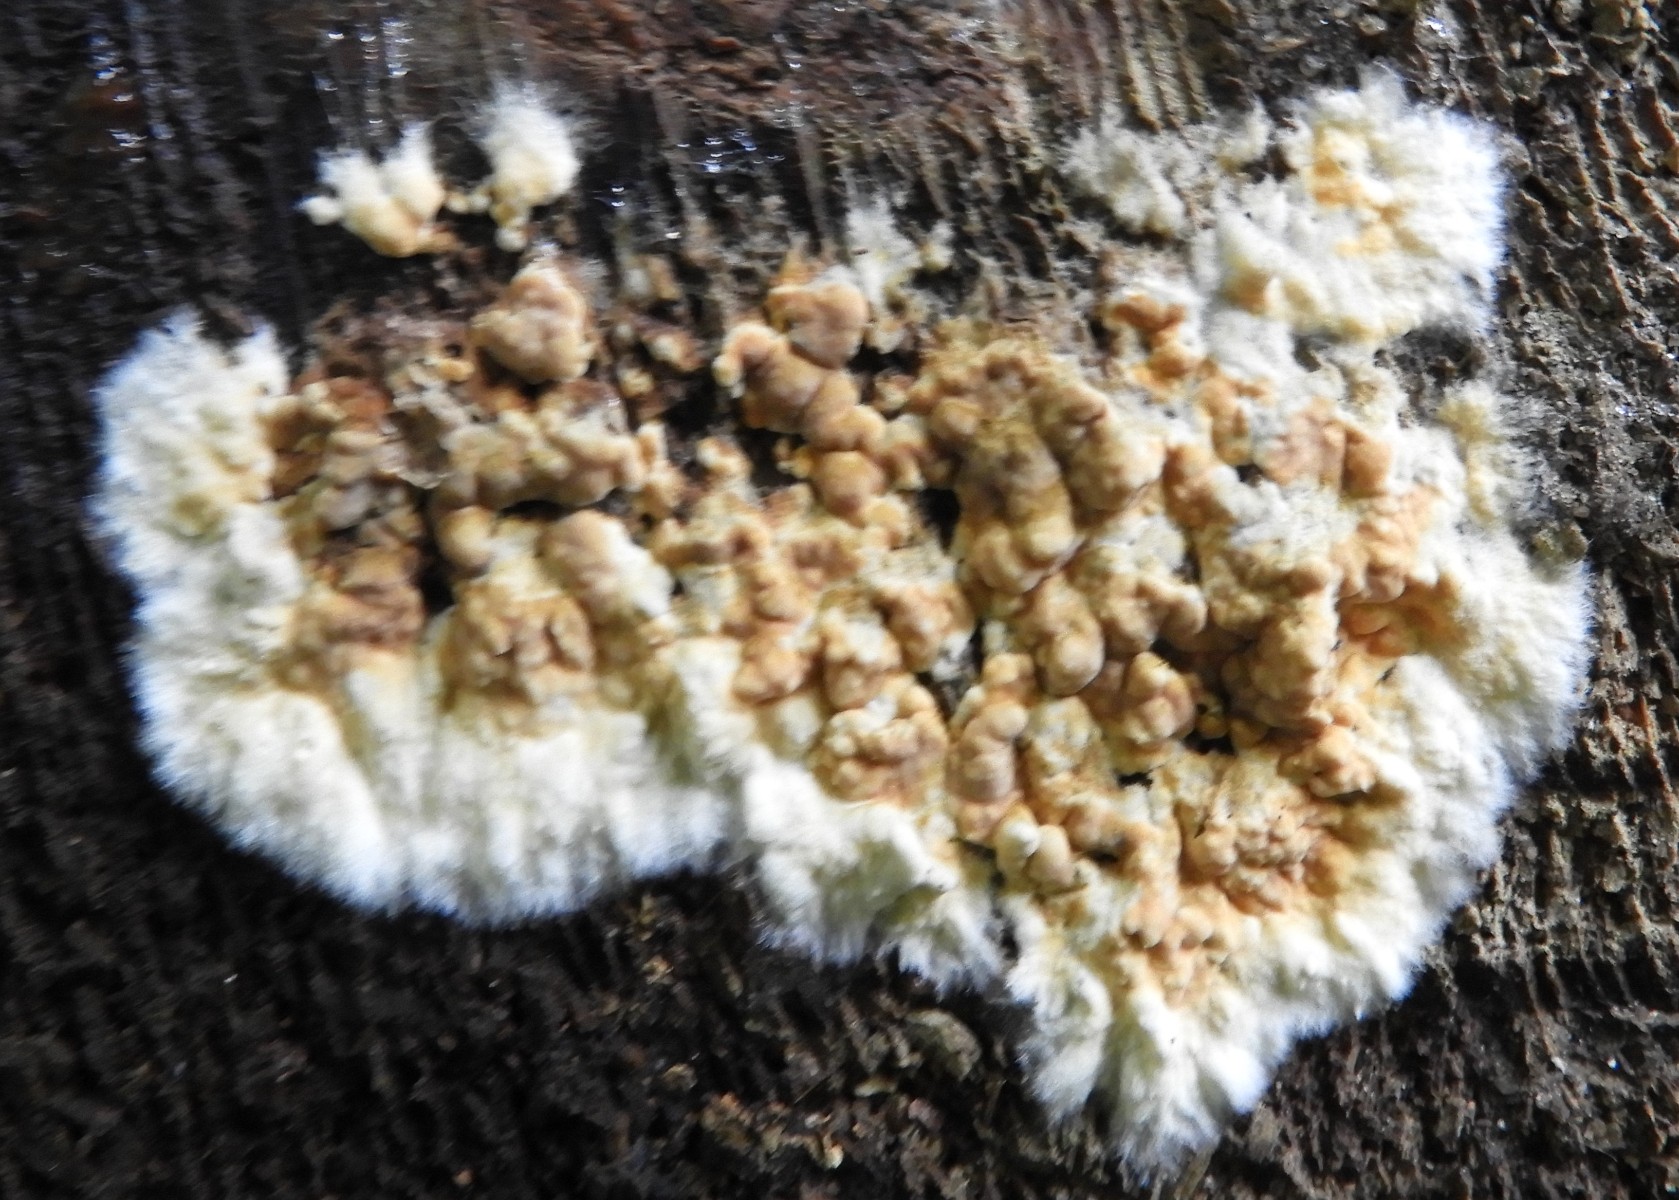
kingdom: Fungi
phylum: Basidiomycota
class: Agaricomycetes
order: Boletales
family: Coniophoraceae
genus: Coniophora
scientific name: Coniophora puteana
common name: gul tømmersvamp
